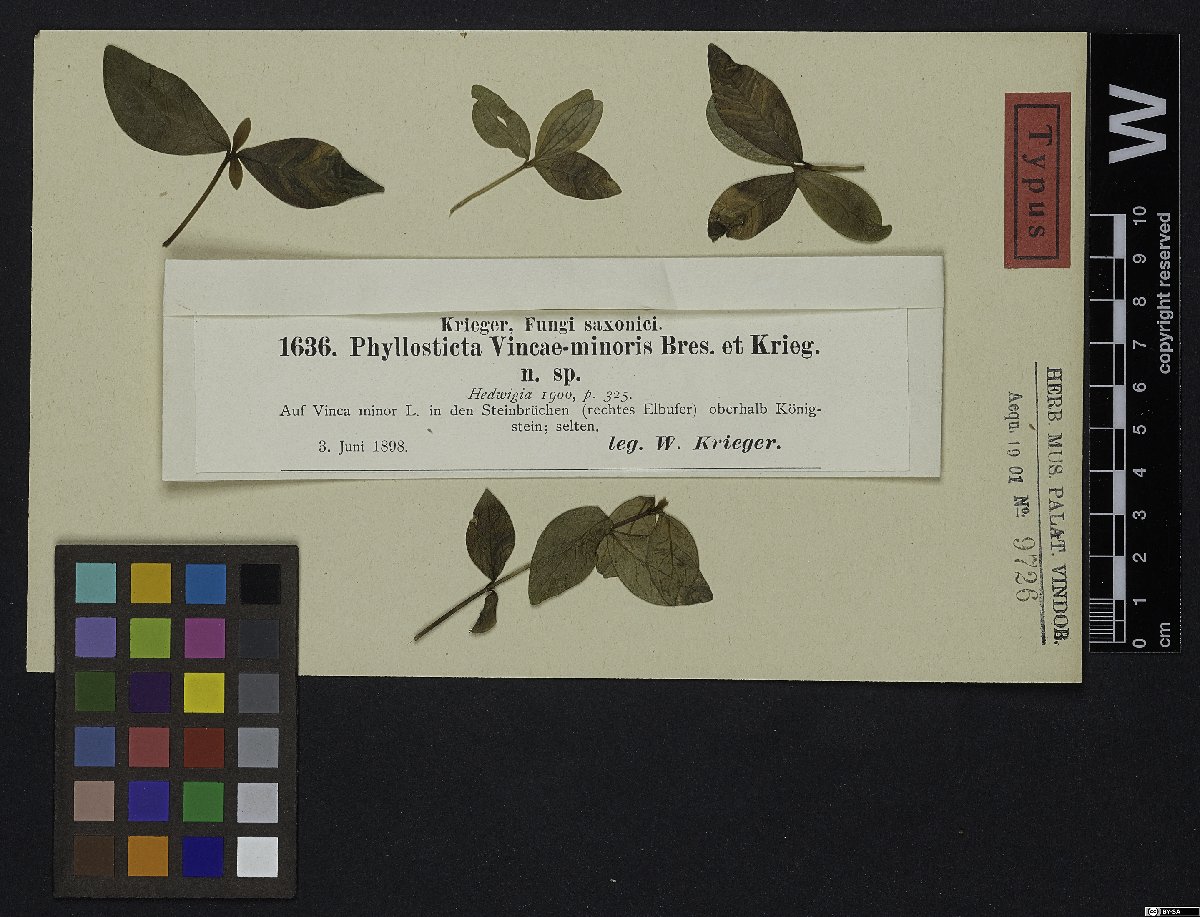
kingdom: Fungi
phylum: Ascomycota
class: Dothideomycetes
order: Botryosphaeriales
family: Phyllostictaceae
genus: Phyllosticta
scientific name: Phyllosticta vincae-minoris
